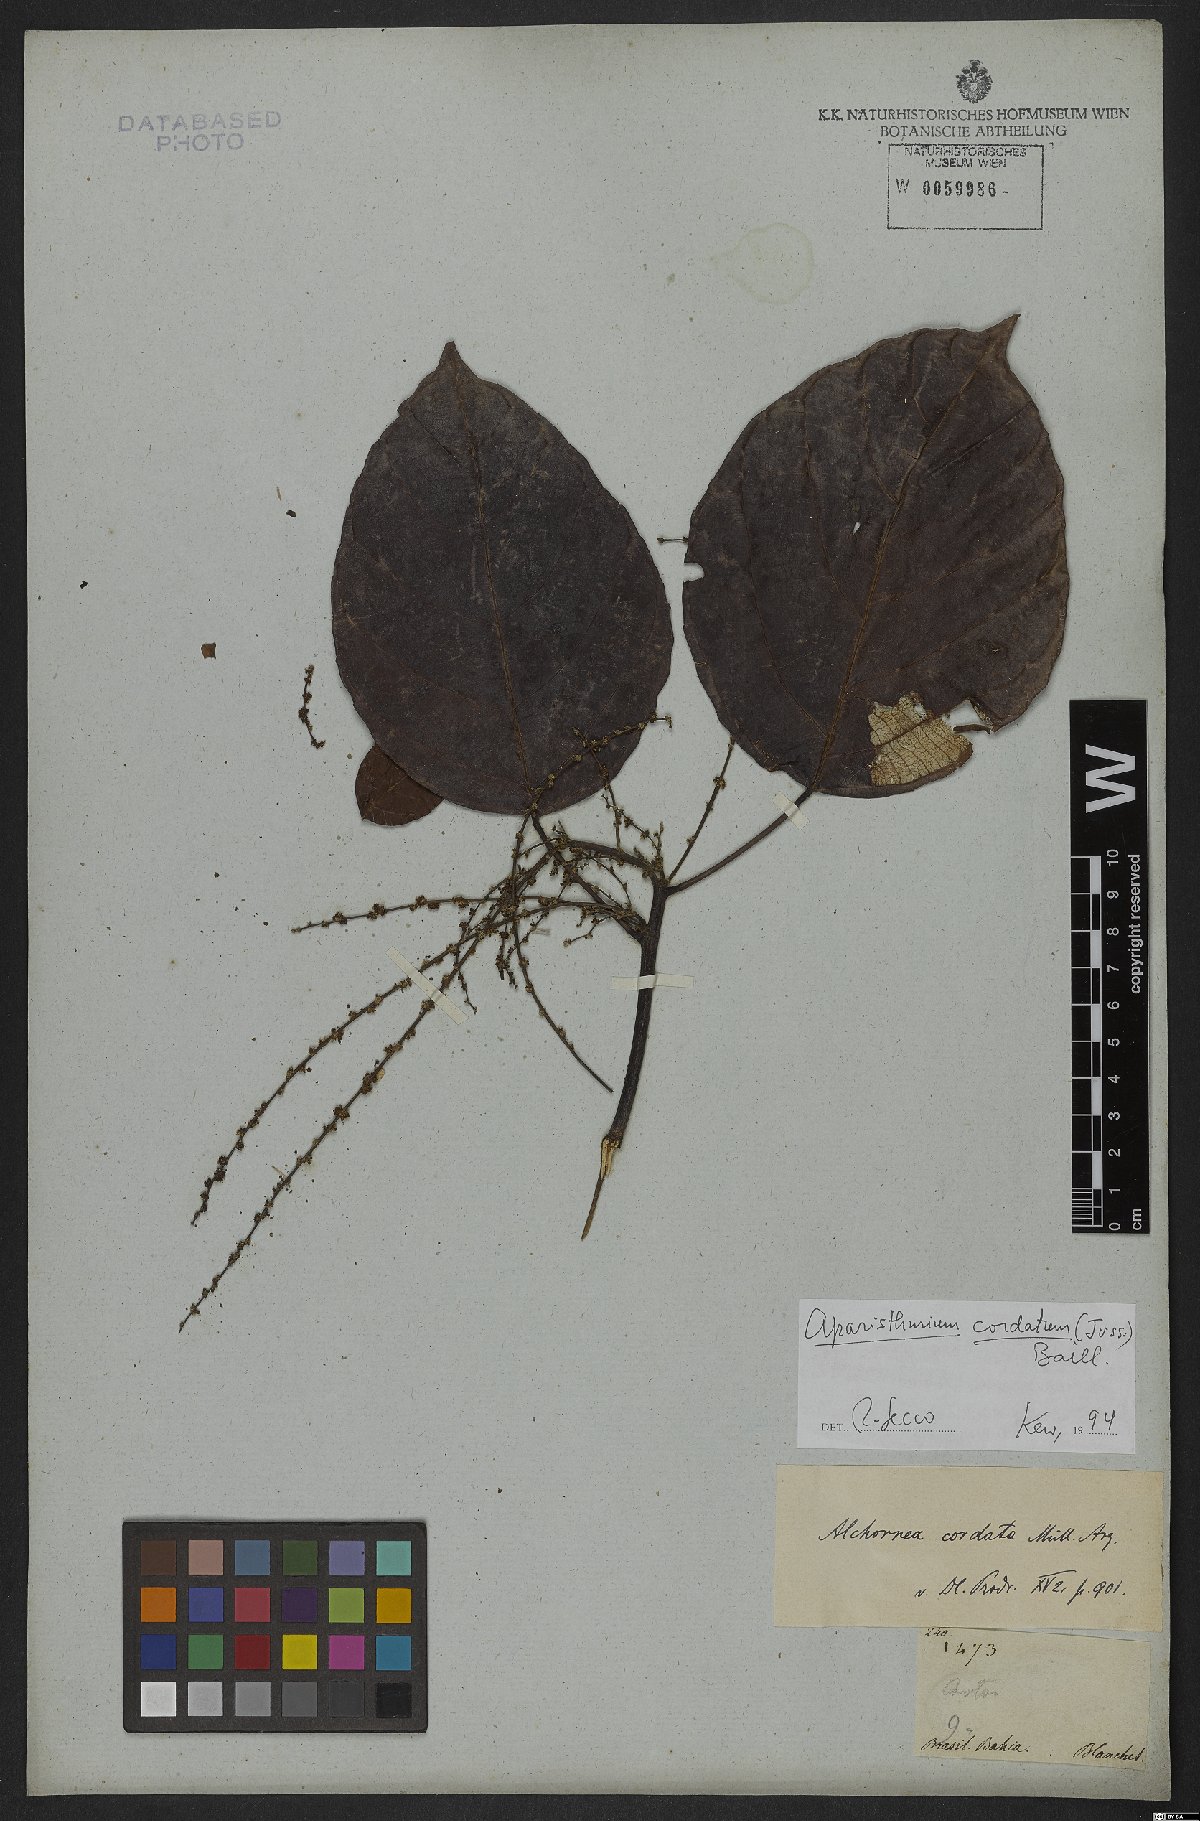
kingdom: Plantae
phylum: Tracheophyta
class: Magnoliopsida
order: Malpighiales
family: Euphorbiaceae
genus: Aparisthmium
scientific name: Aparisthmium cordatum
